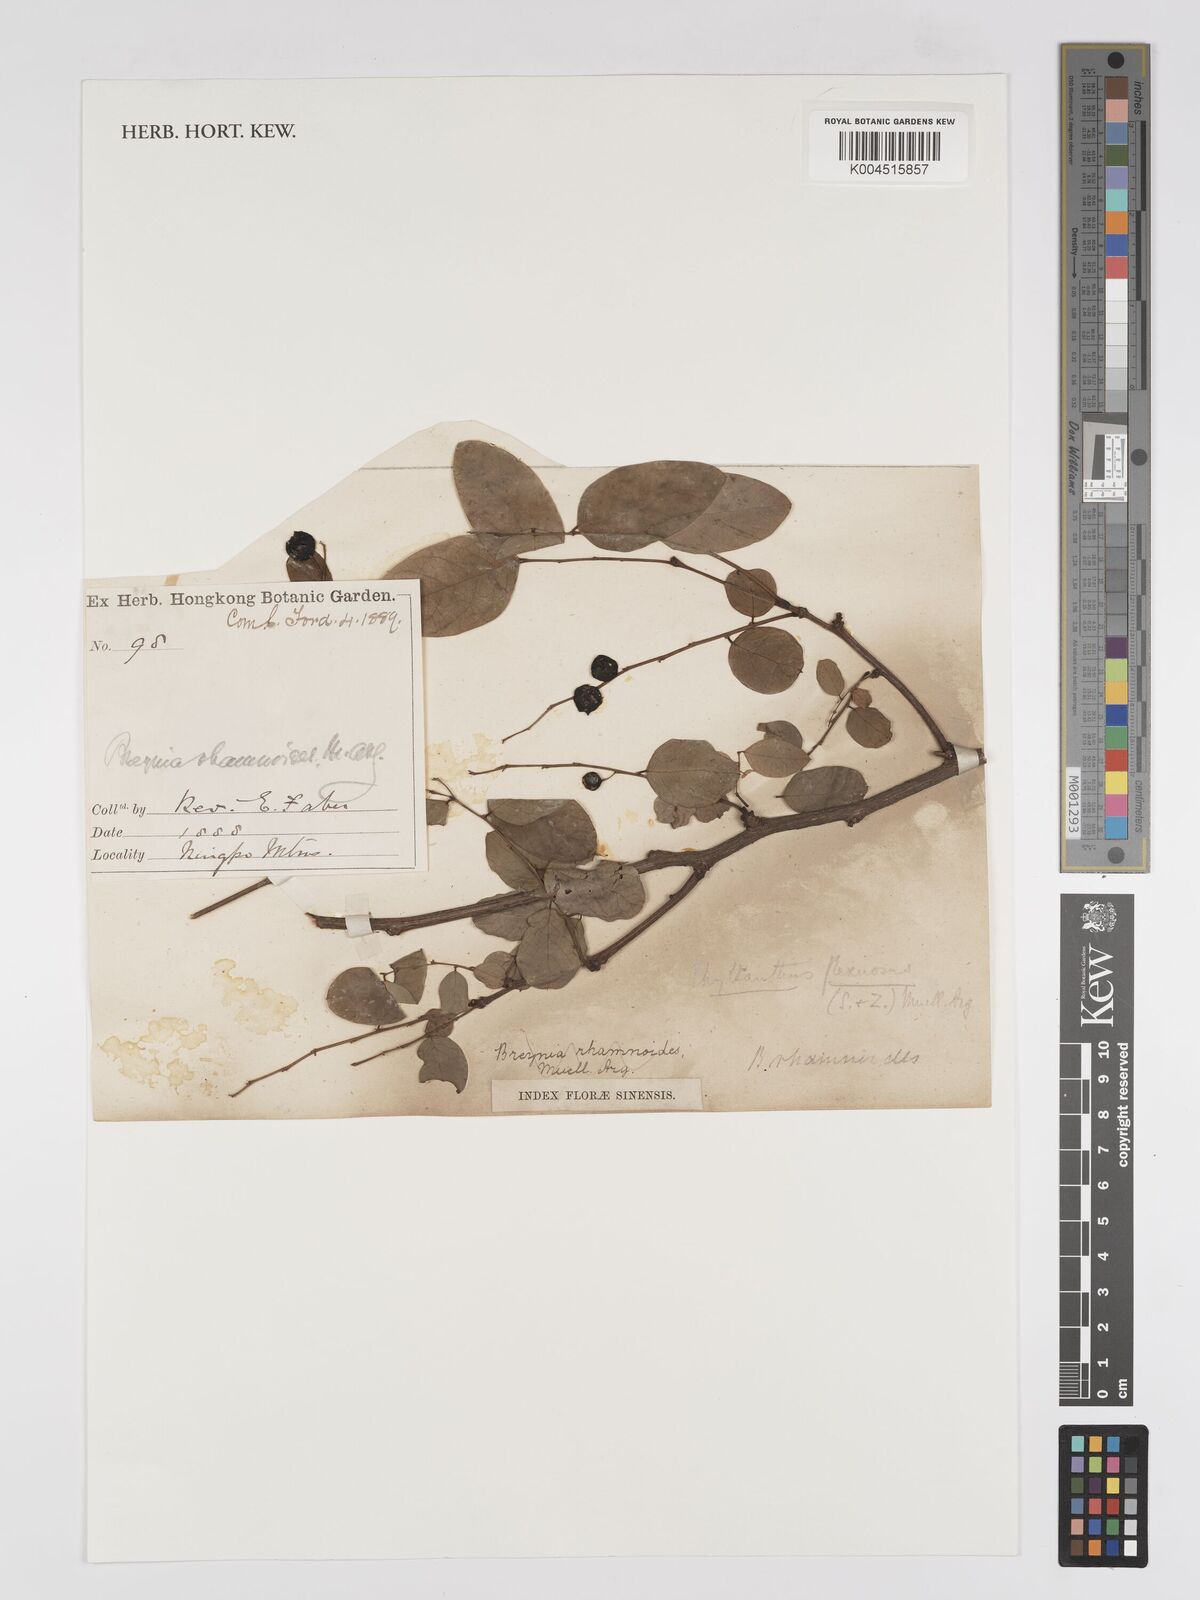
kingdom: Plantae
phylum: Tracheophyta
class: Magnoliopsida
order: Malpighiales
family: Phyllanthaceae
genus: Phyllanthus
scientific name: Phyllanthus flexuosus
